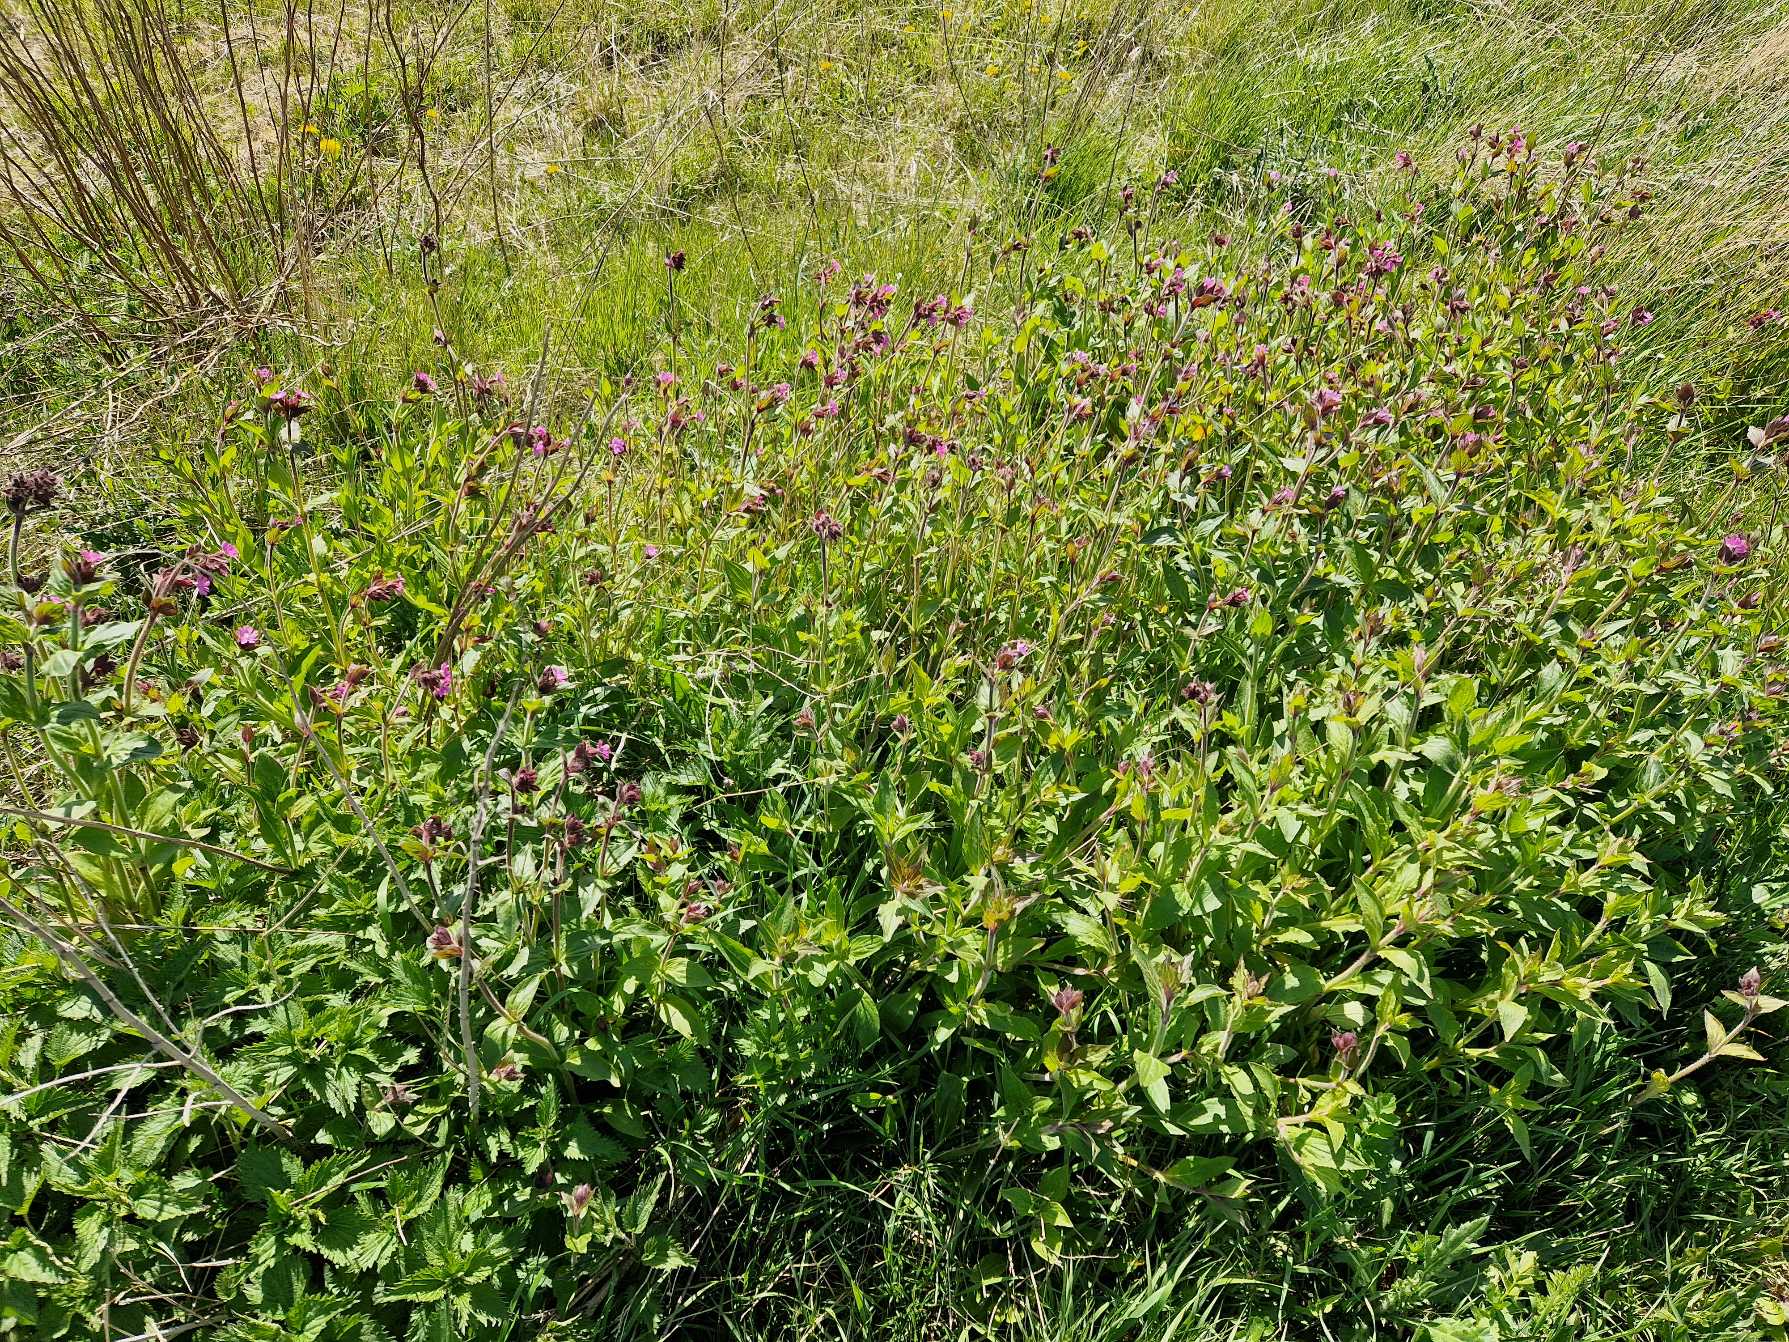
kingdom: Plantae
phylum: Tracheophyta
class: Magnoliopsida
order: Caryophyllales
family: Caryophyllaceae
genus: Silene
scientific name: Silene dioica
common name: Dagpragtstjerne
